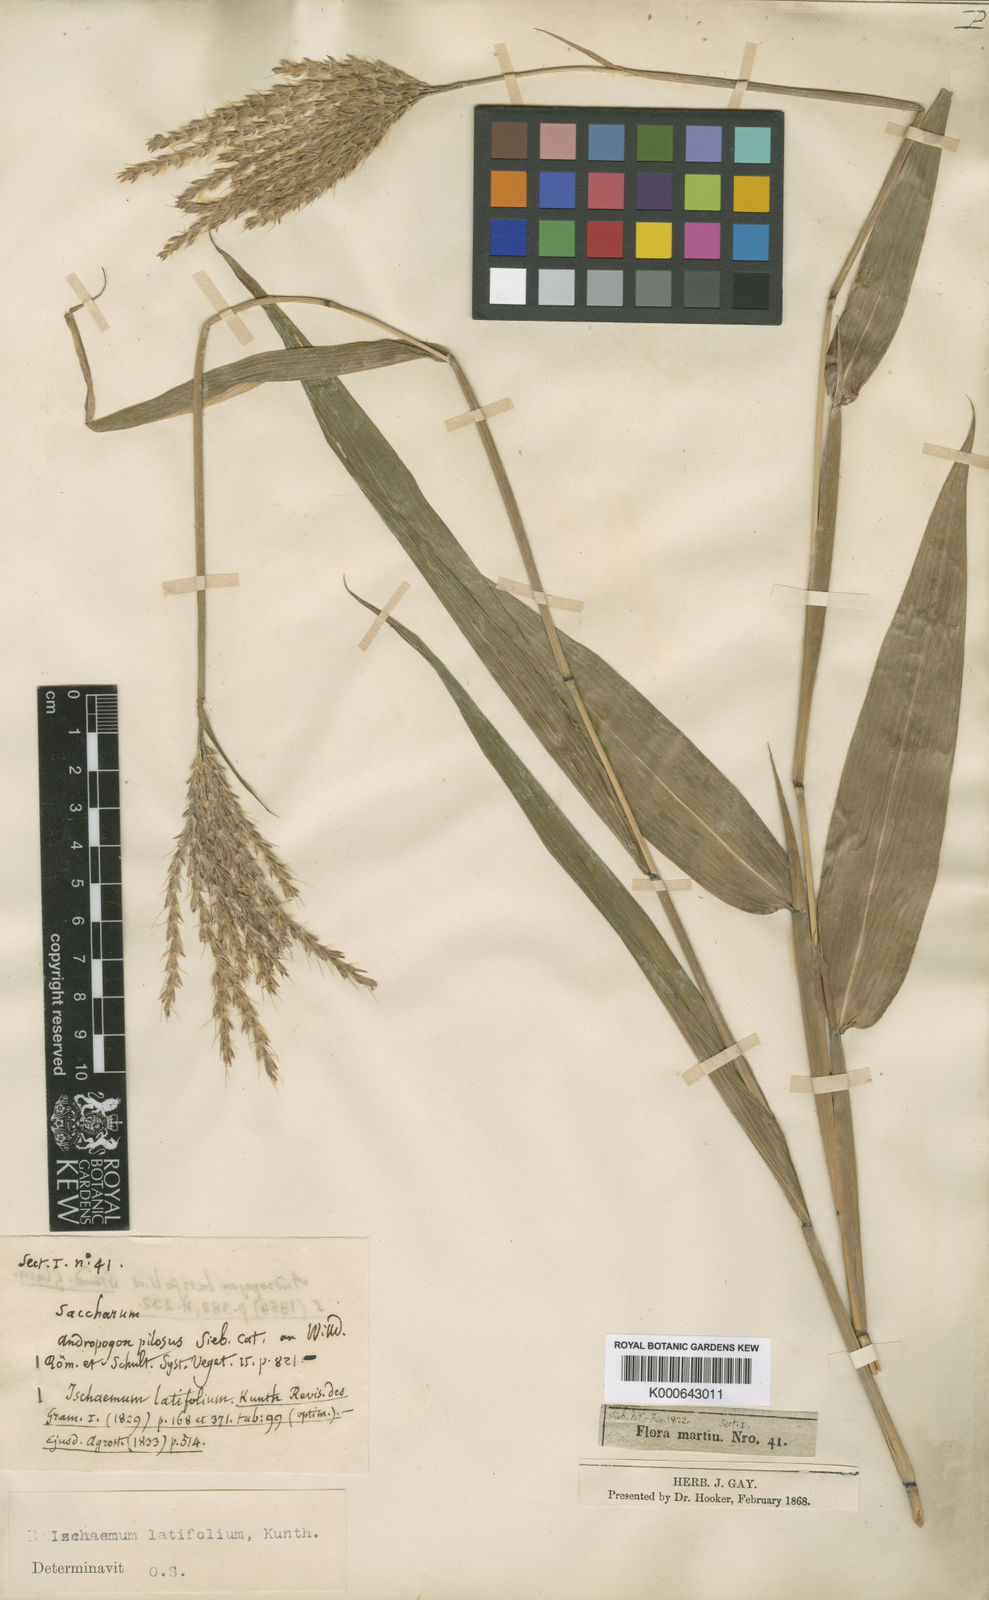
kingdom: Plantae
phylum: Tracheophyta
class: Liliopsida
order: Poales
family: Poaceae
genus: Ischaemum
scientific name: Ischaemum latifolium
